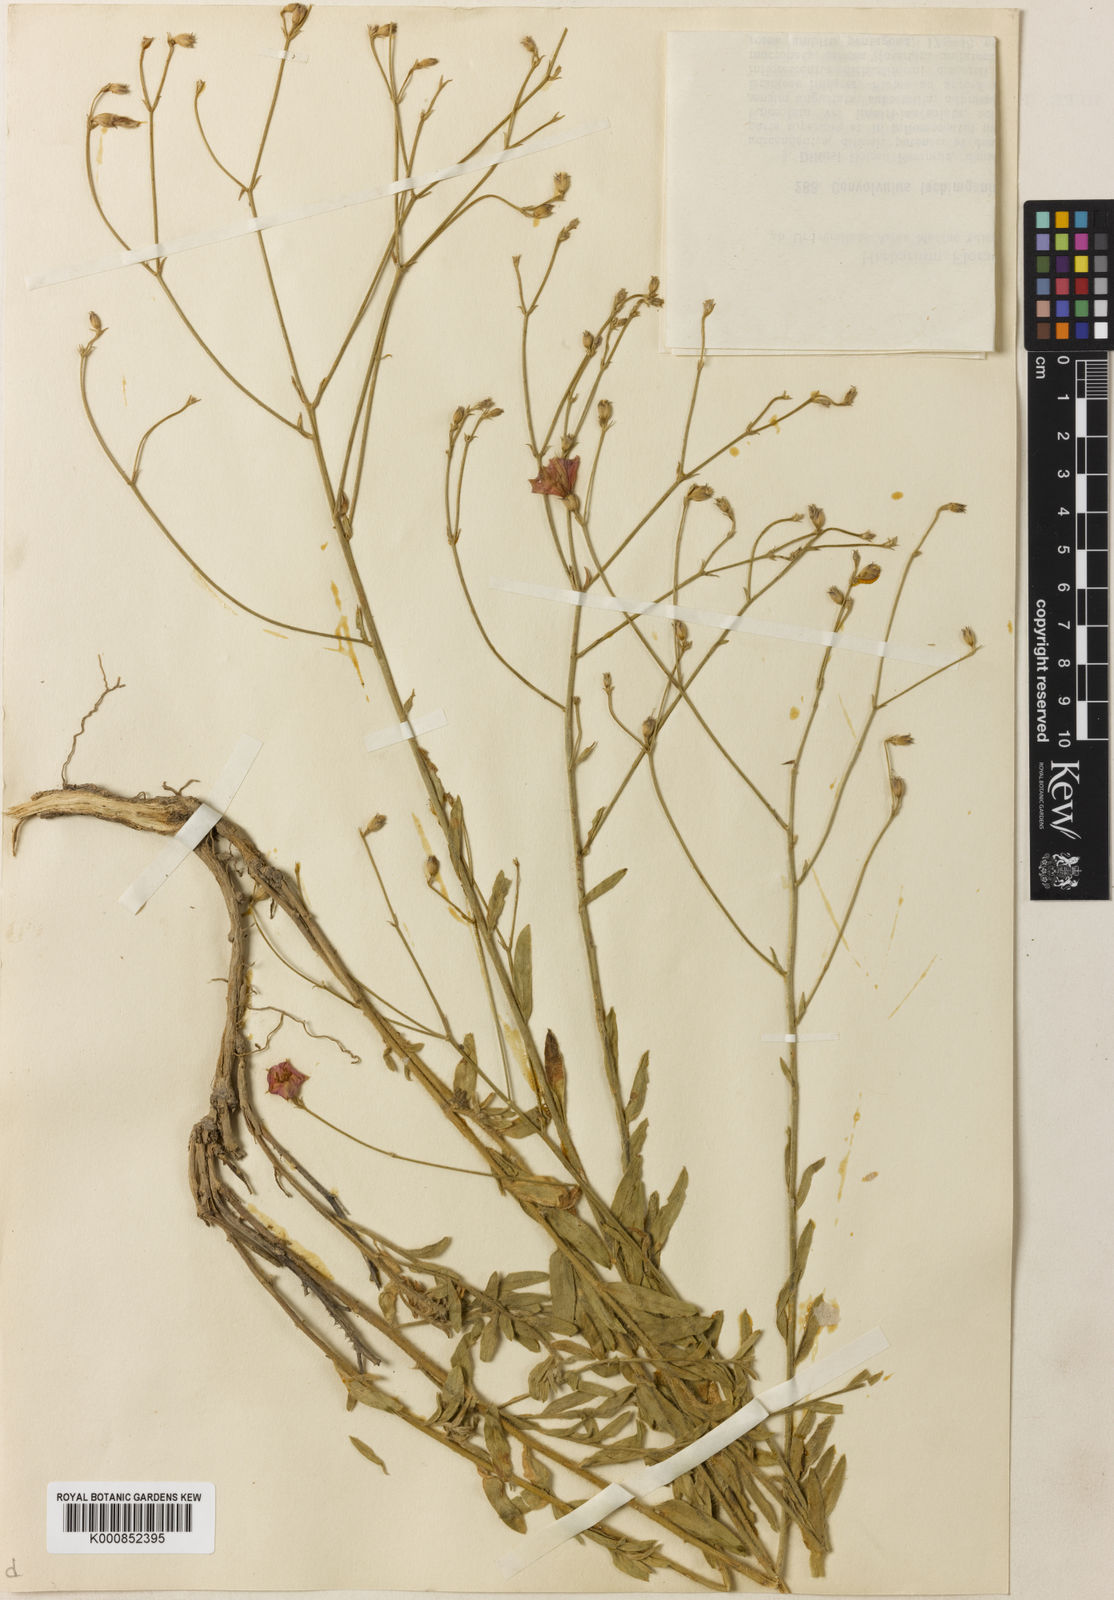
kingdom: Plantae
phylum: Tracheophyta
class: Magnoliopsida
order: Solanales
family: Convolvulaceae
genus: Convolvulus
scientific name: Convolvulus dorycnium
